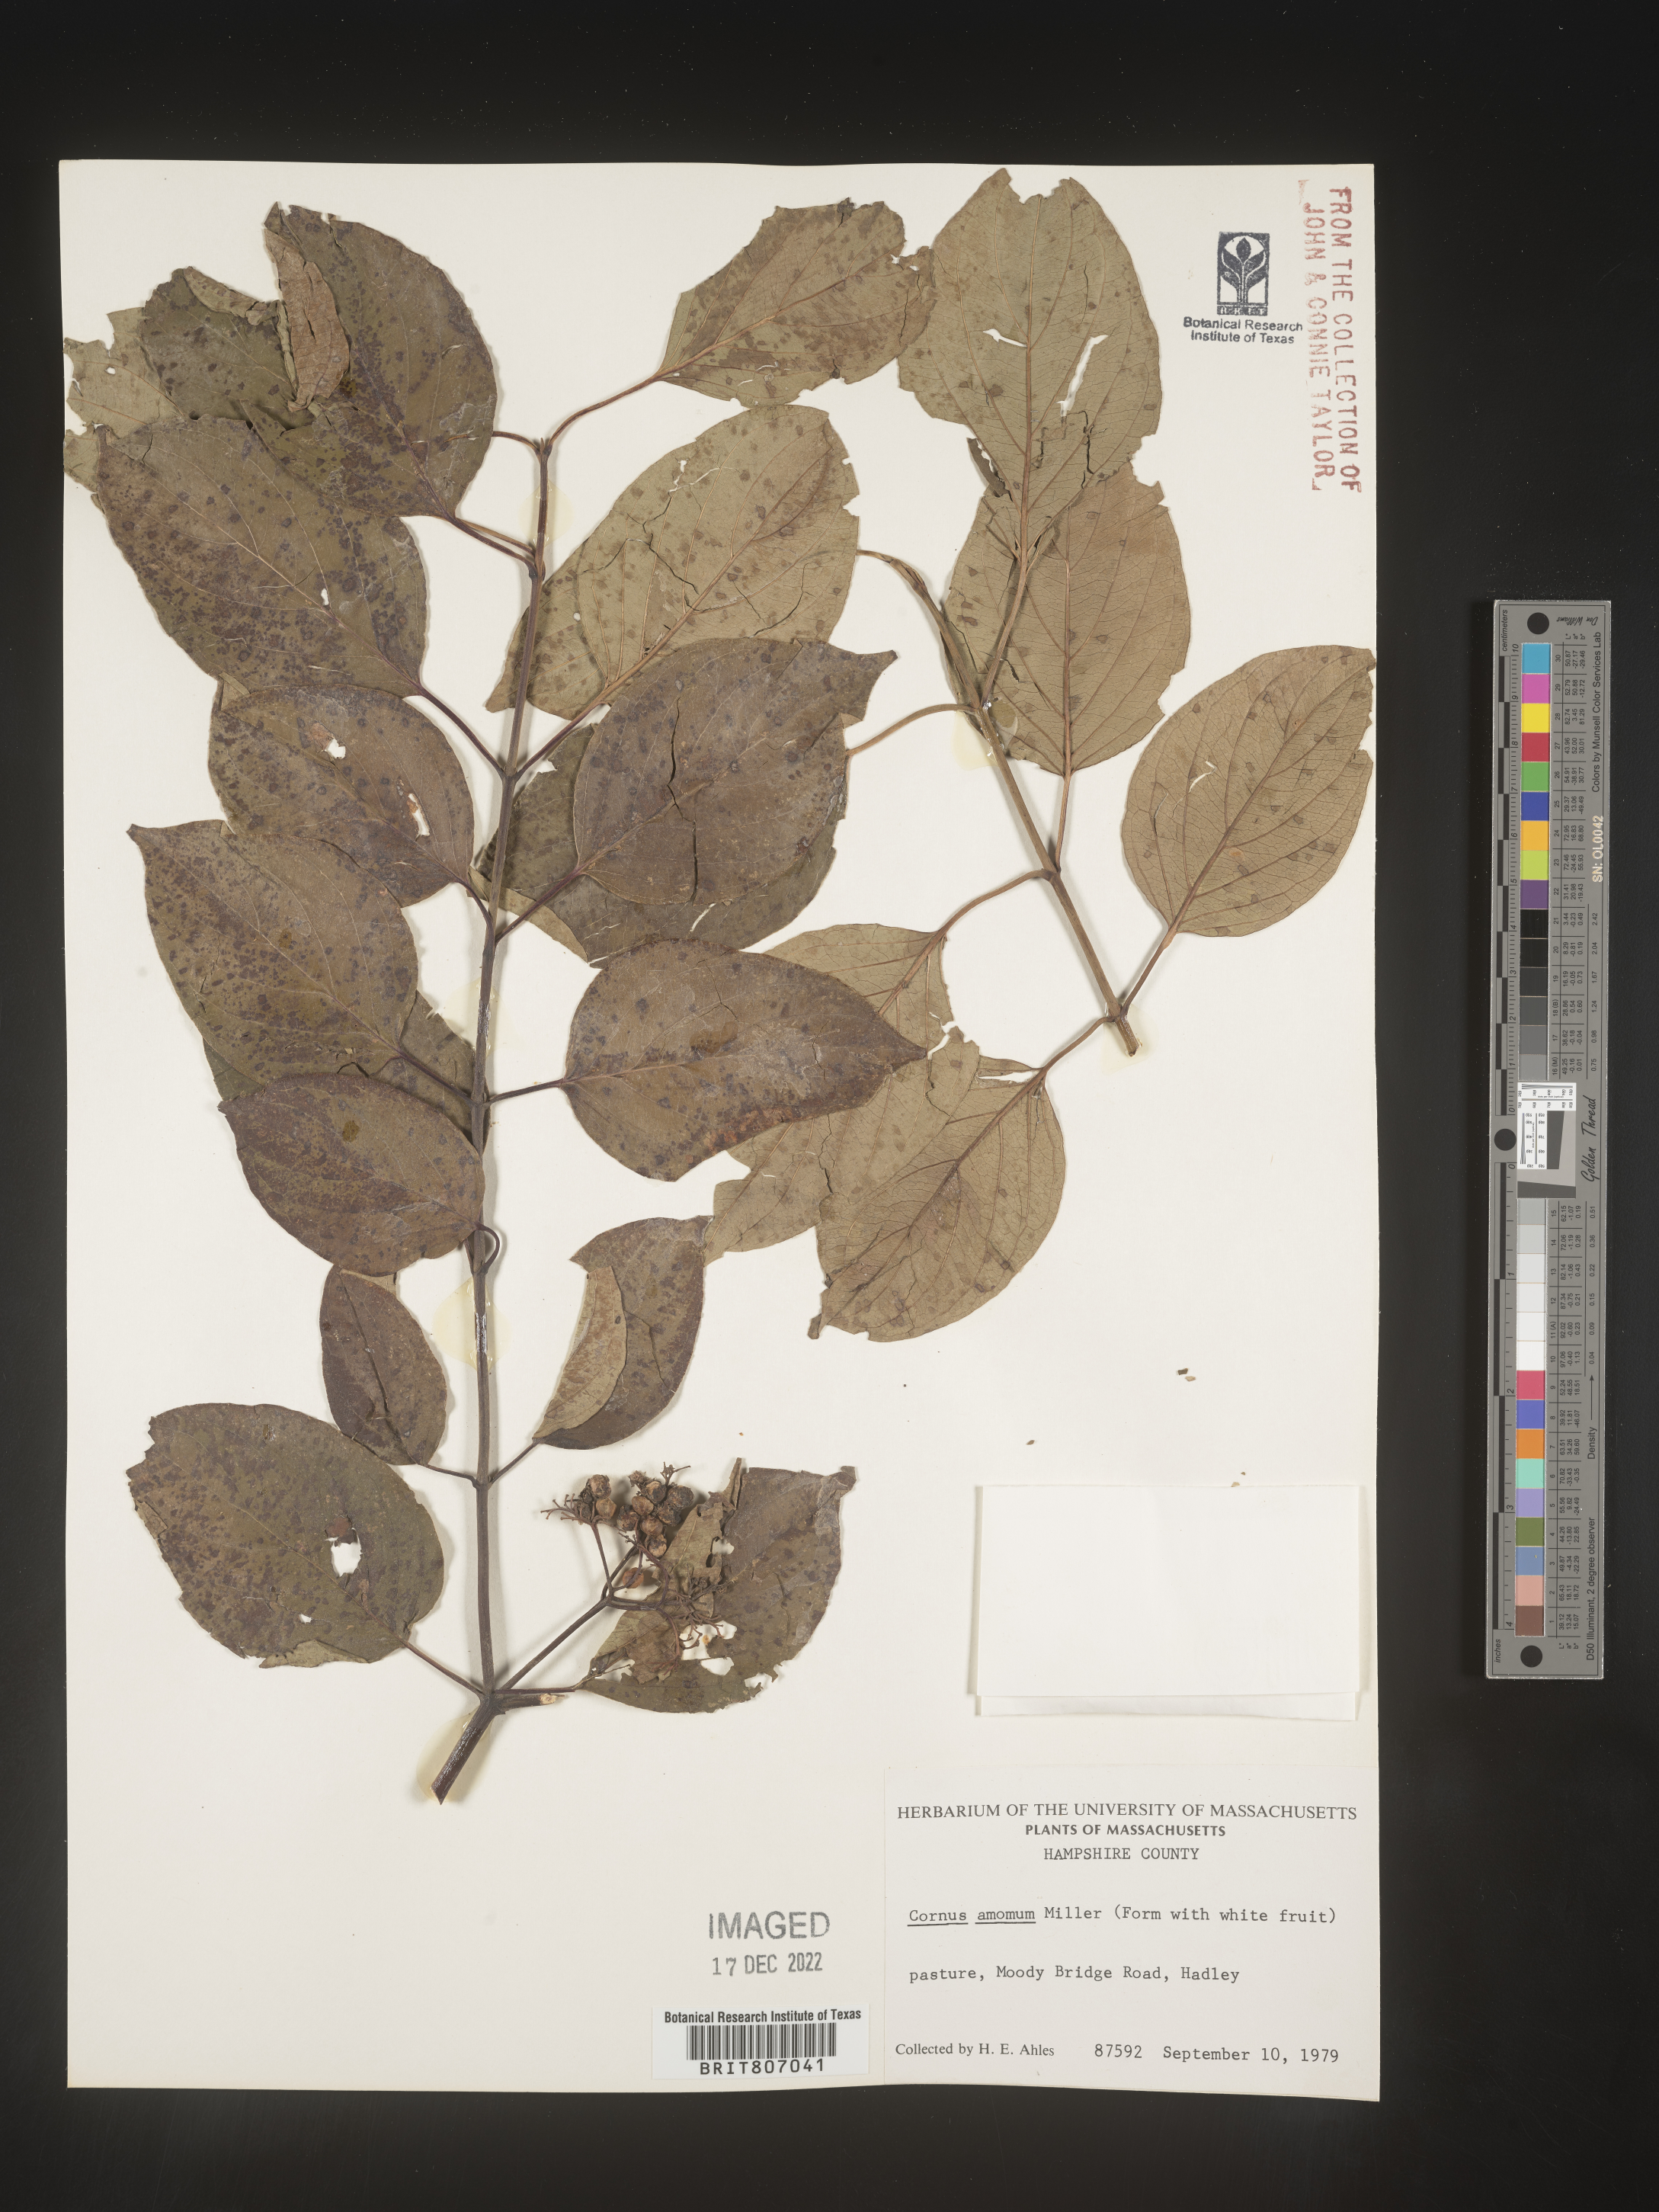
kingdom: Plantae
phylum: Tracheophyta
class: Magnoliopsida
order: Cornales
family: Cornaceae
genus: Cornus
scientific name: Cornus amomum
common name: Silky dogwood
